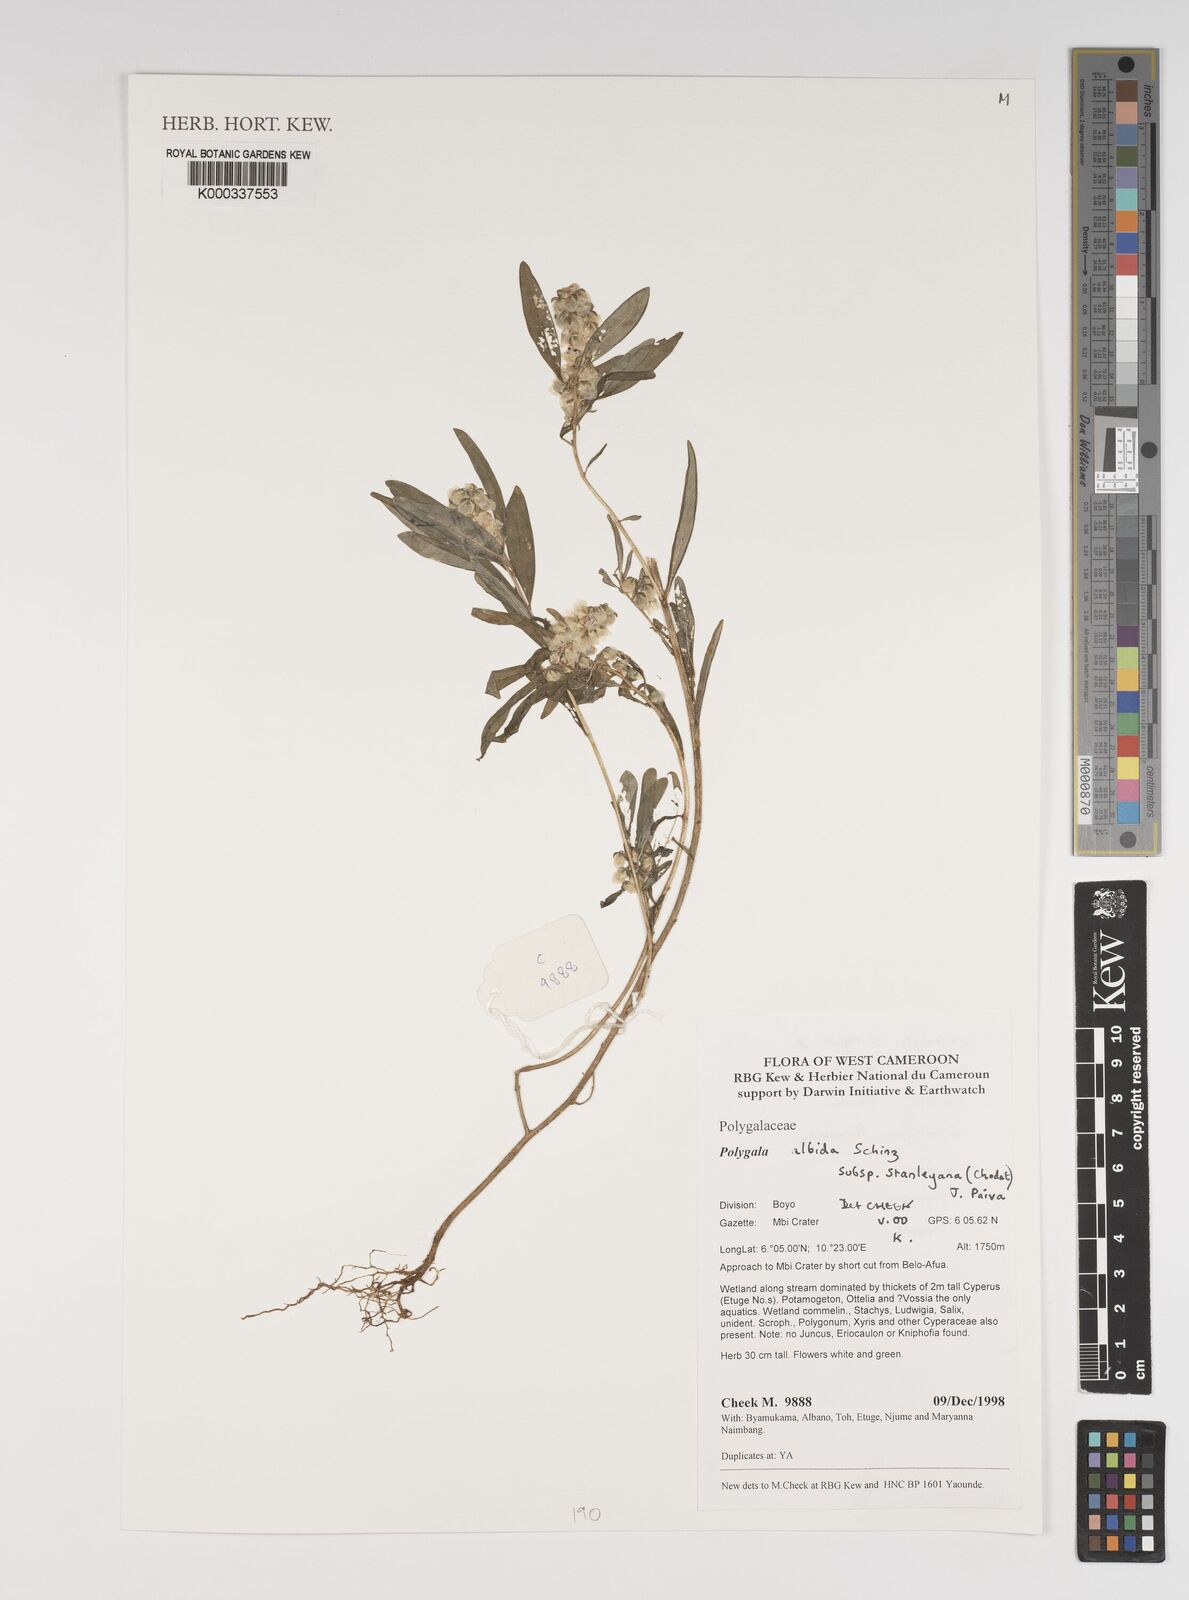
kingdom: Plantae
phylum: Tracheophyta
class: Magnoliopsida
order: Fabales
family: Polygalaceae
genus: Polygala
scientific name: Polygala albida
